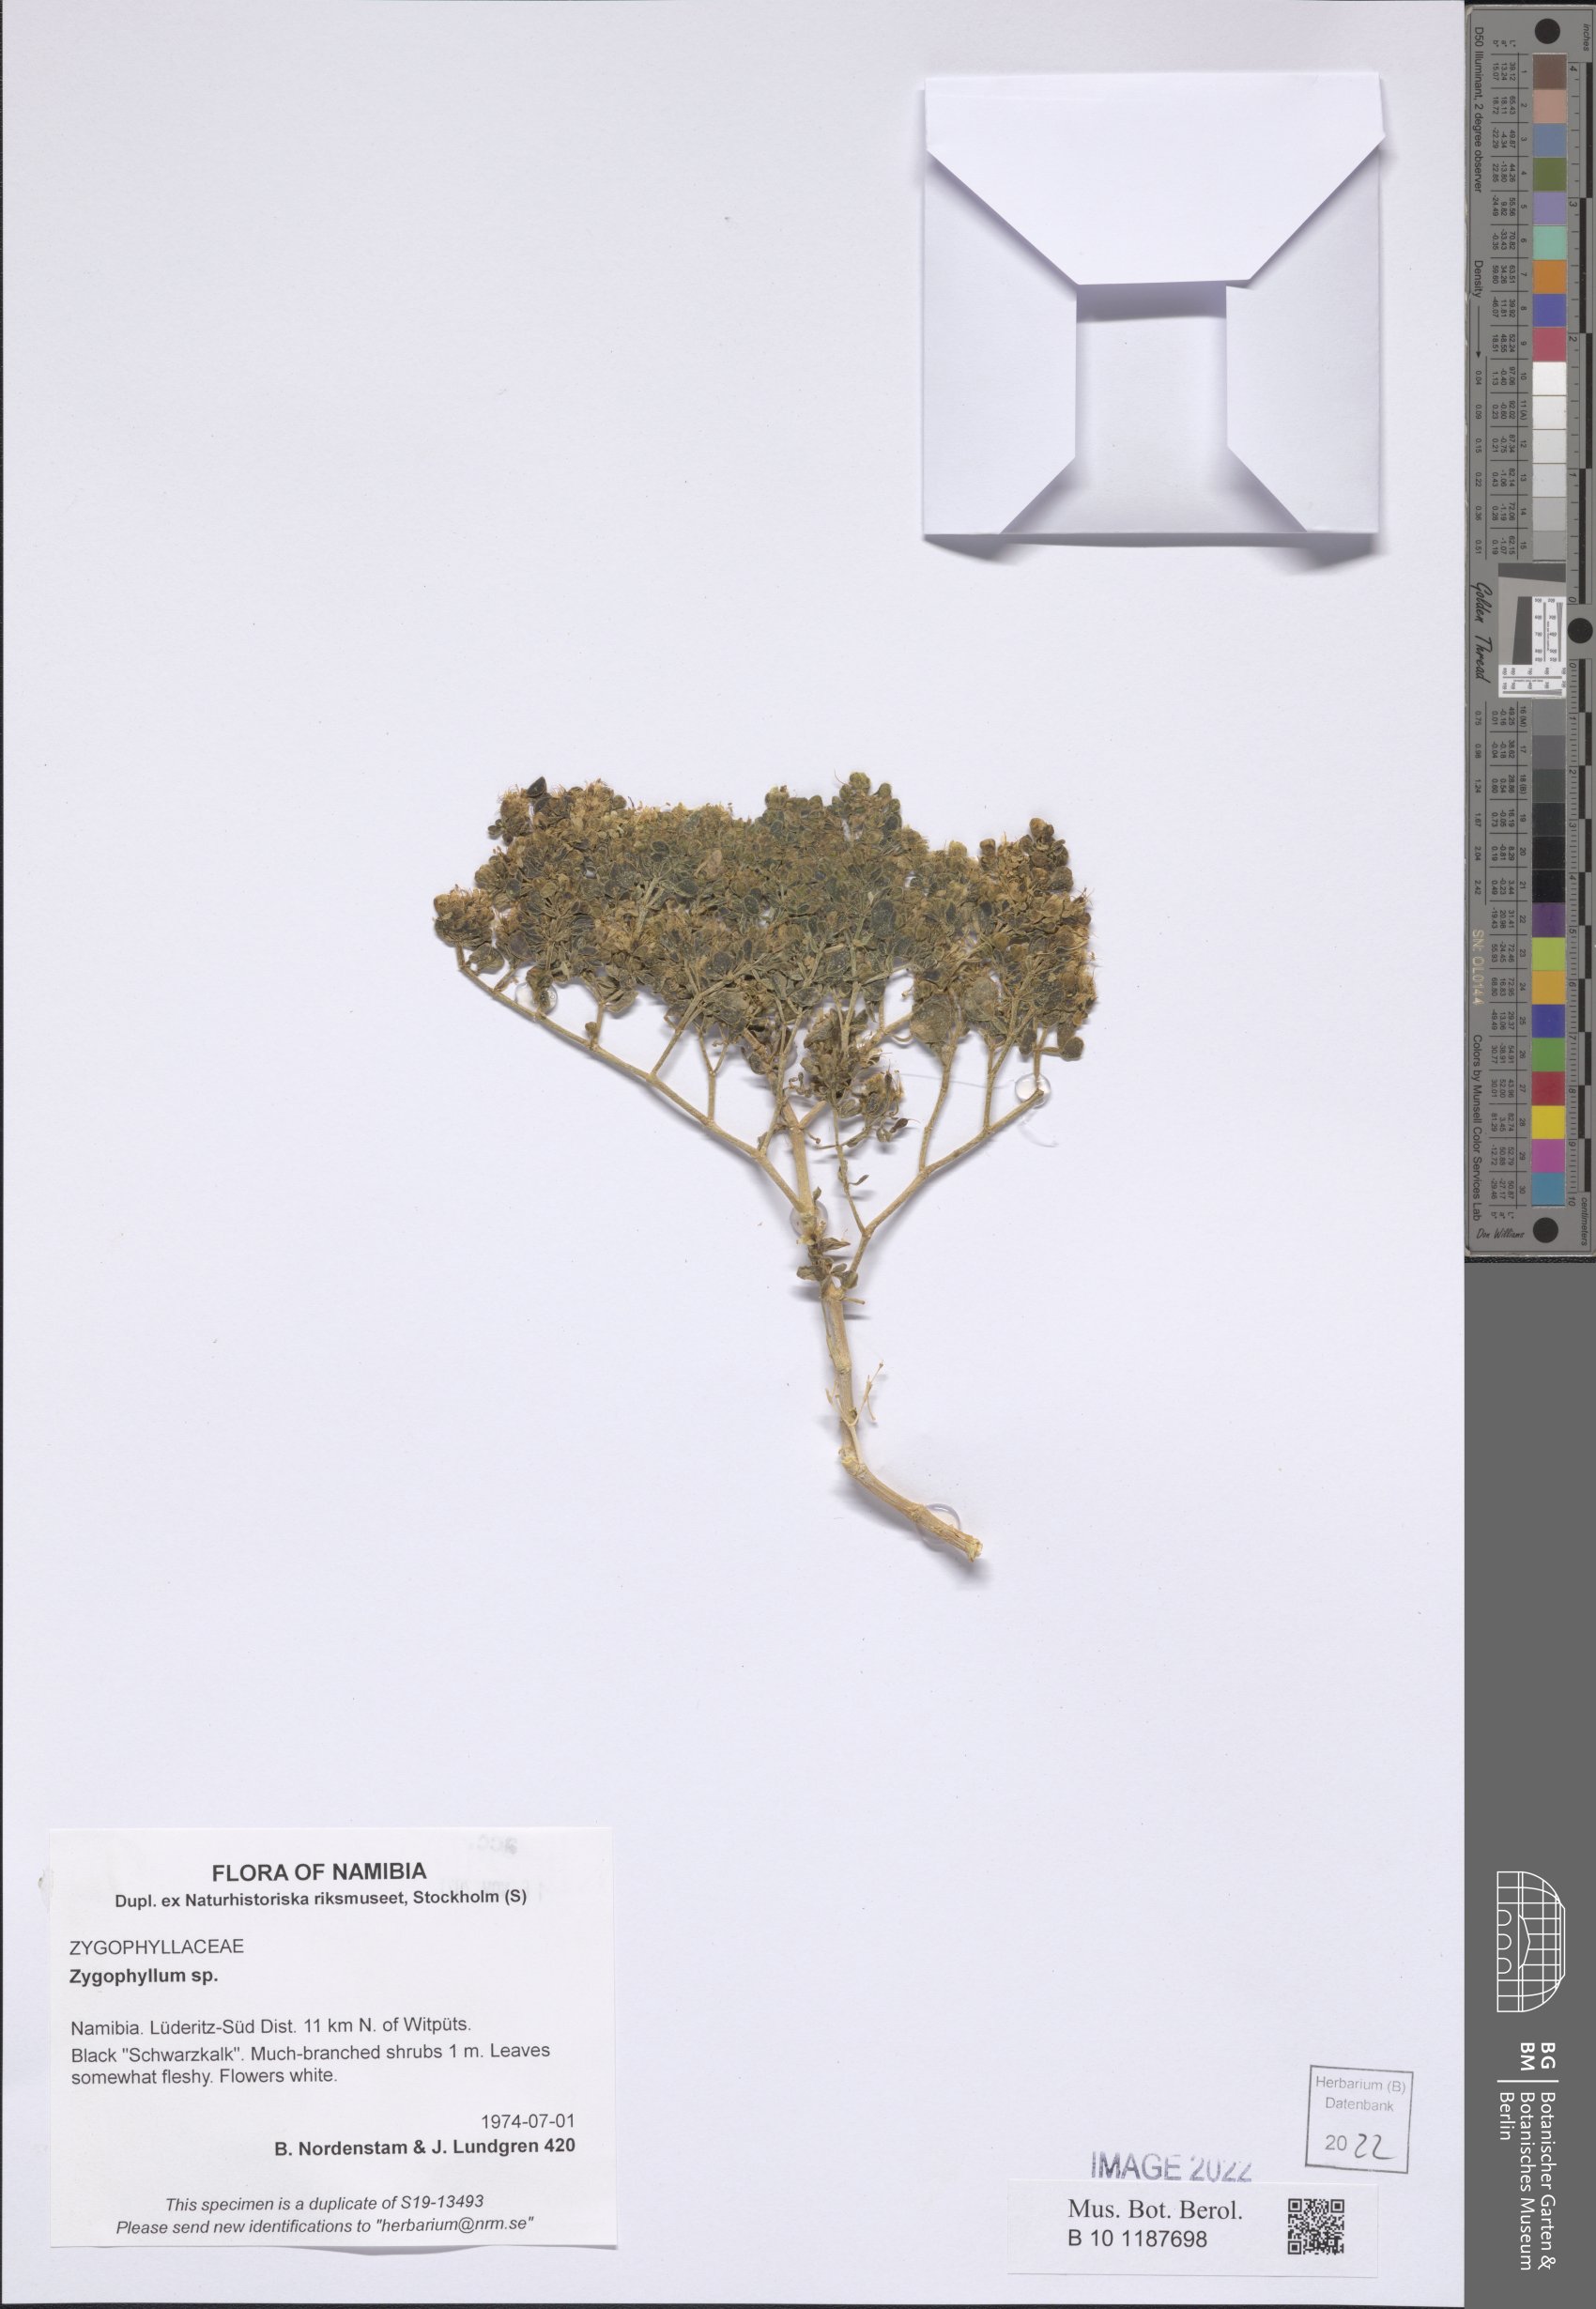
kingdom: Plantae
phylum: Tracheophyta
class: Magnoliopsida
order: Zygophyllales
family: Zygophyllaceae
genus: Zygophyllum
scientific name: Zygophyllum
